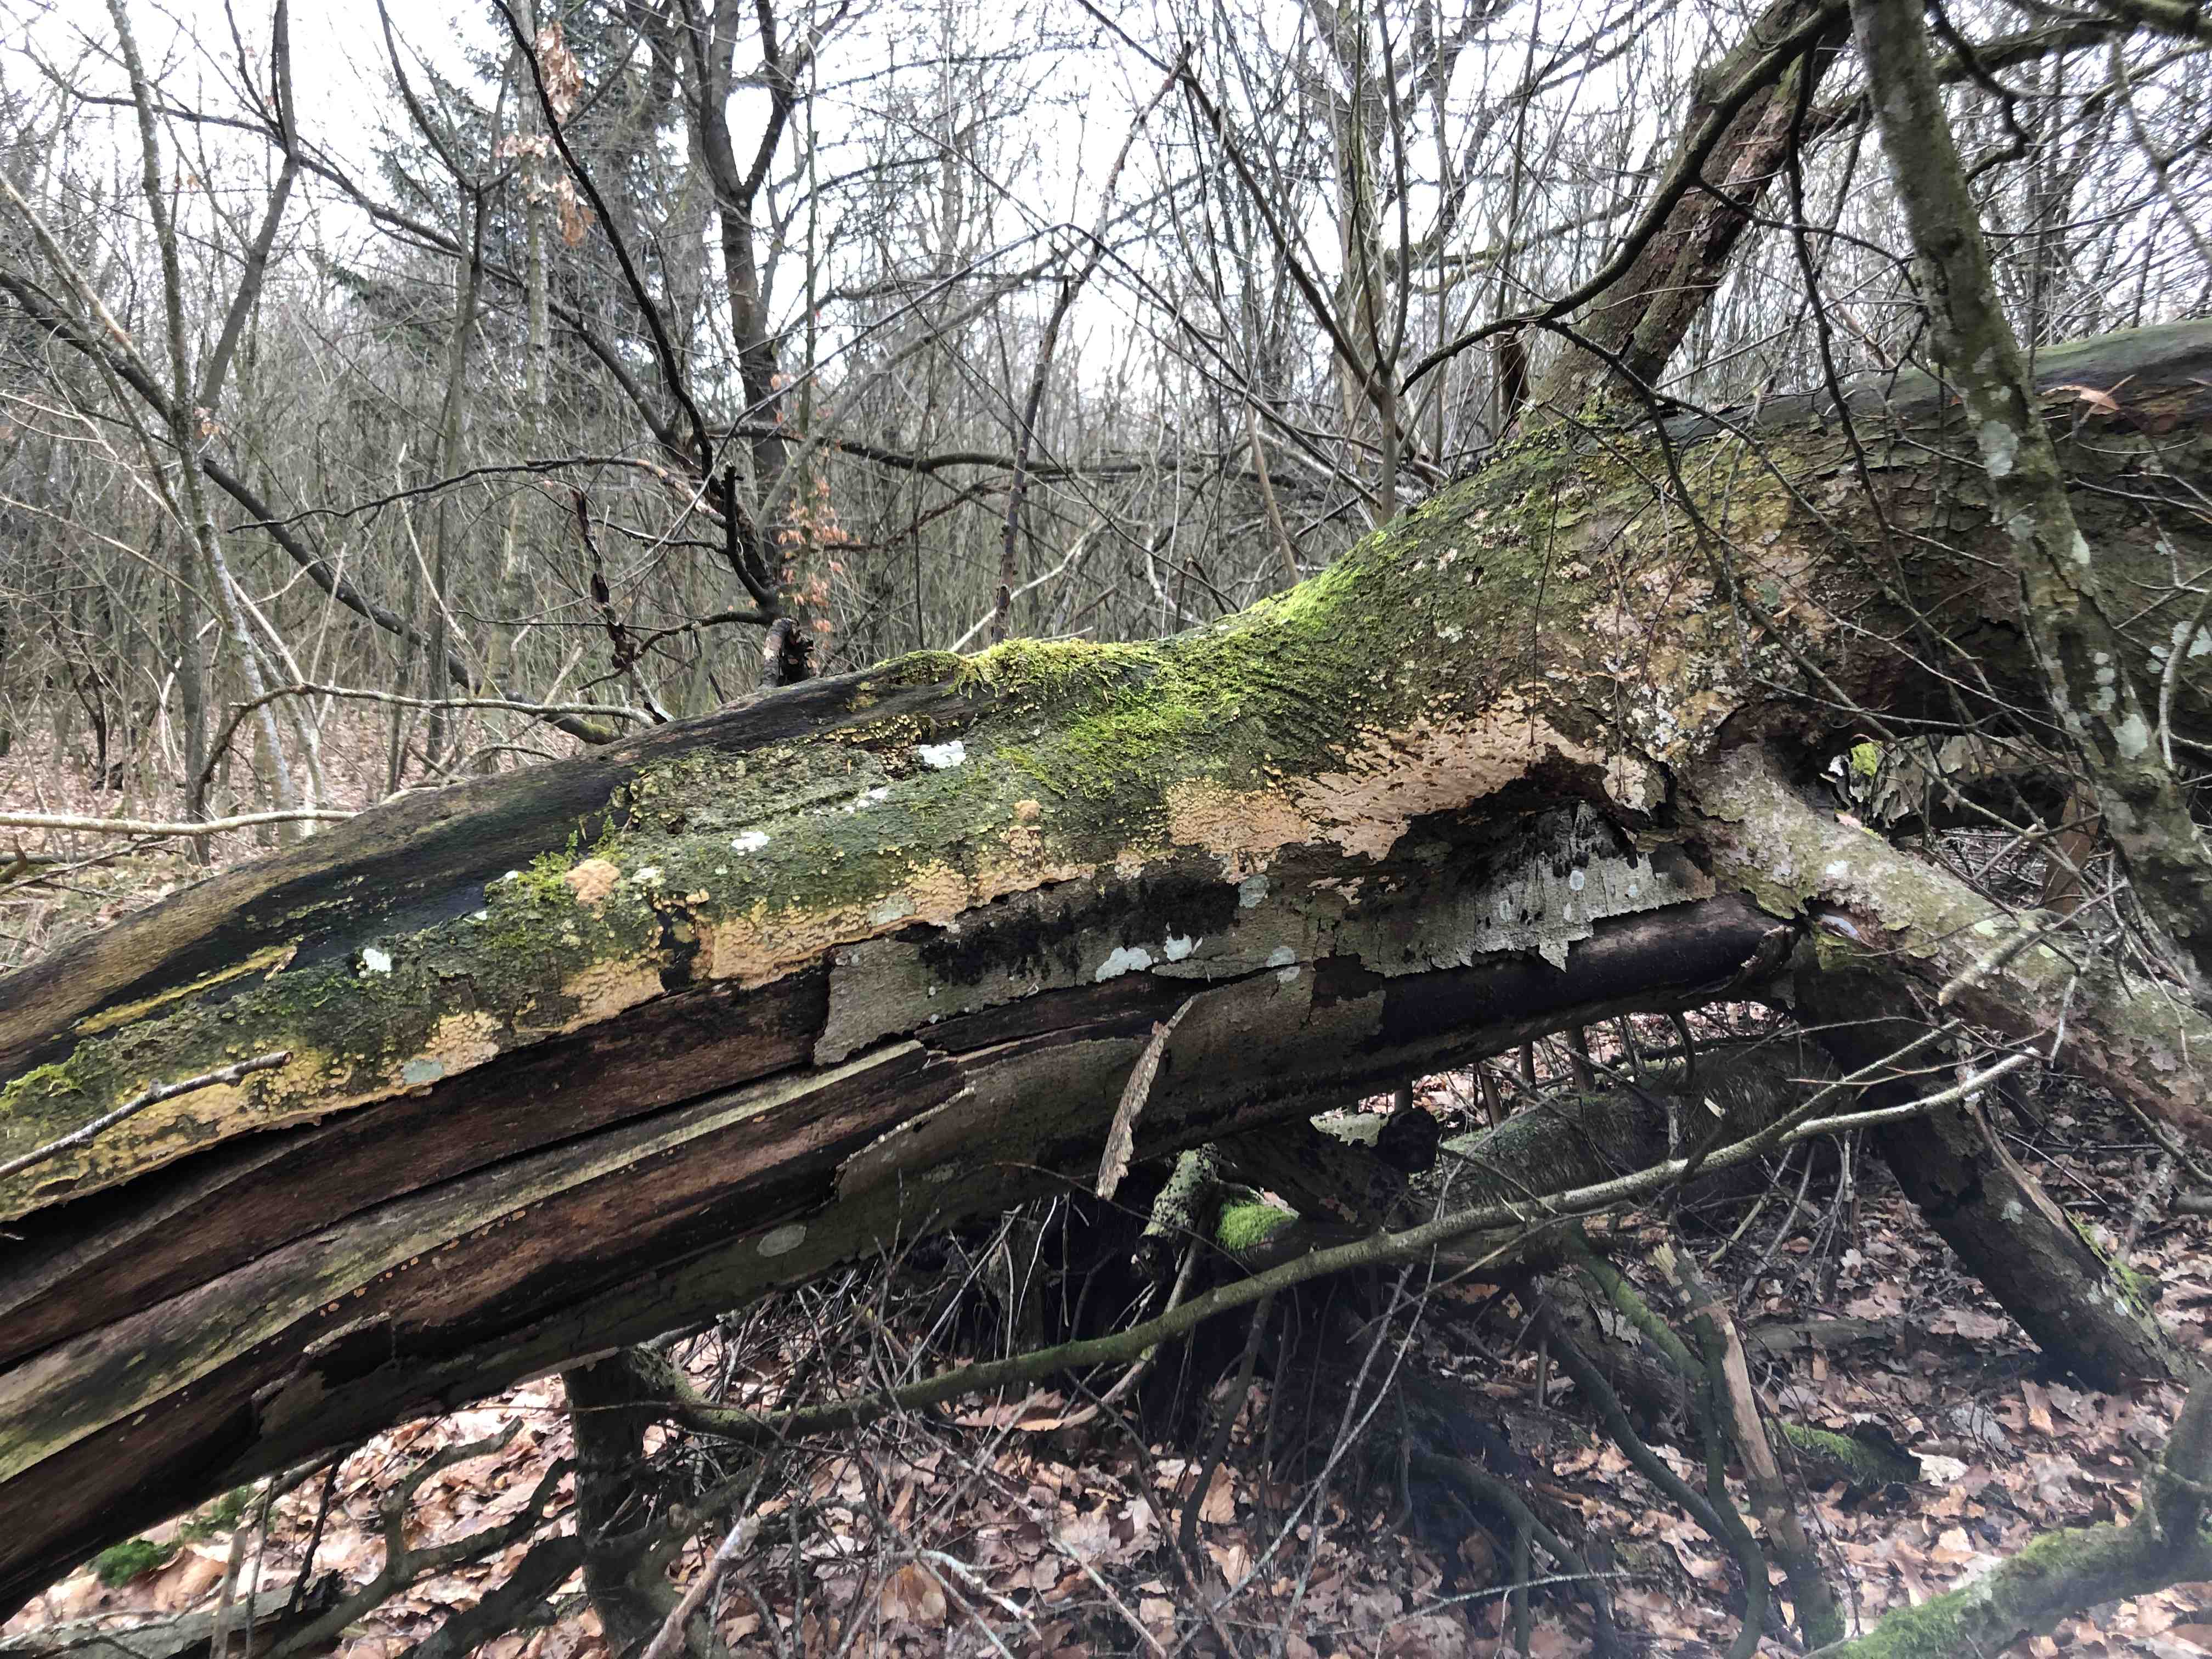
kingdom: Fungi
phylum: Basidiomycota
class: Agaricomycetes
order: Polyporales
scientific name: Polyporales
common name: poresvampordenen
